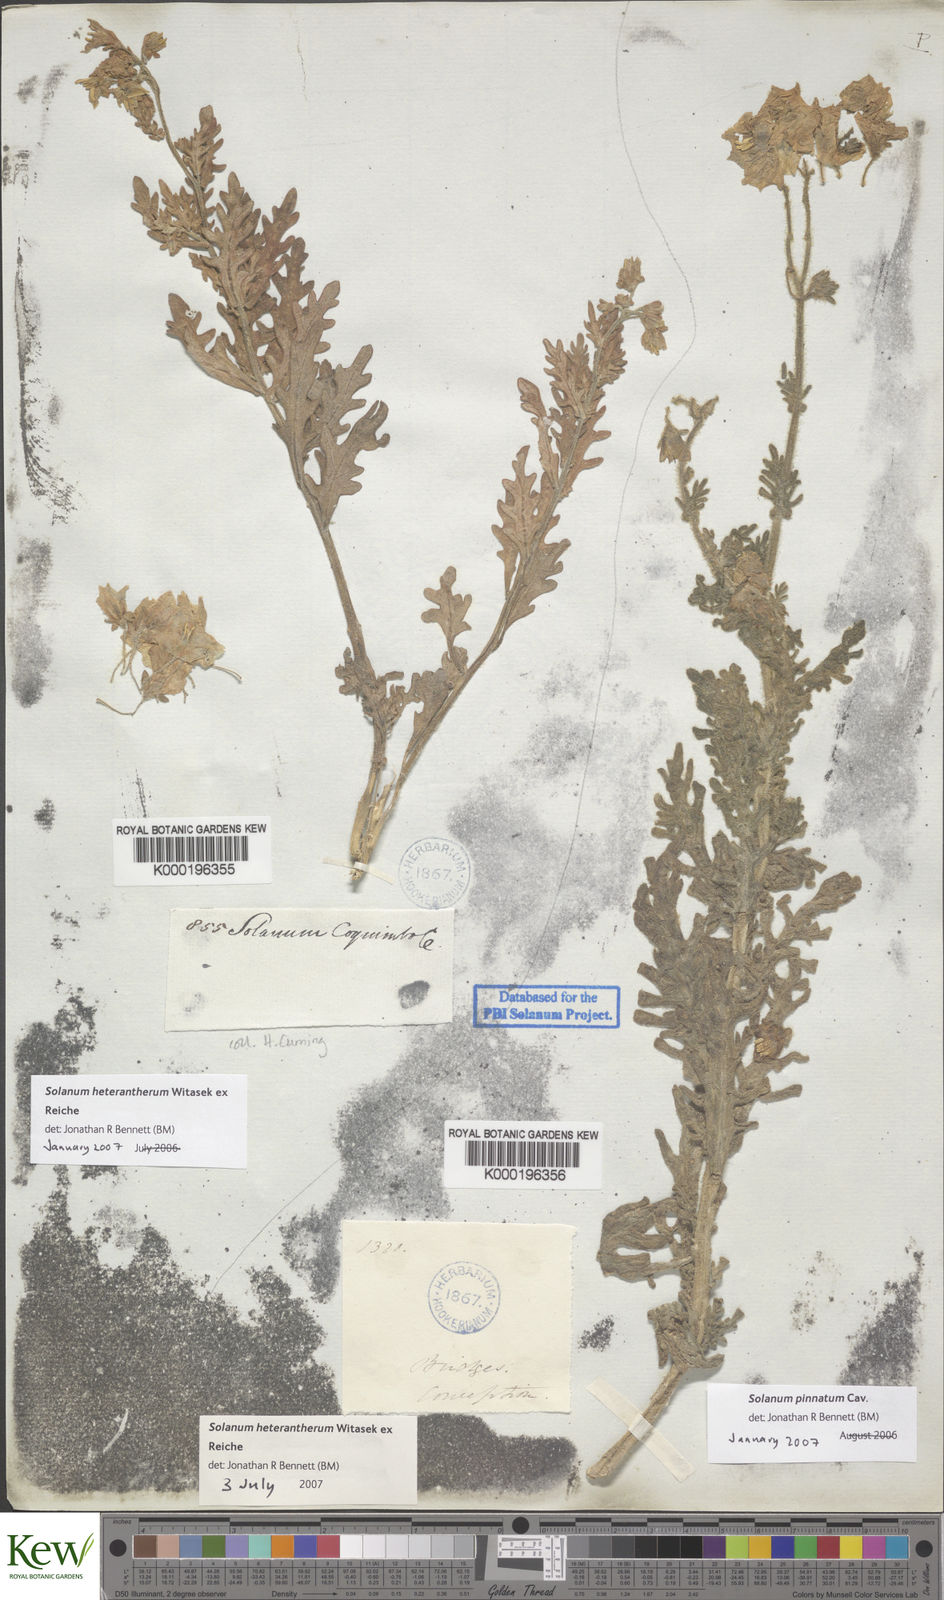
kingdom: Plantae
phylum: Tracheophyta
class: Magnoliopsida
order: Solanales
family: Solanaceae
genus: Solanum
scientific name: Solanum pinnatum
